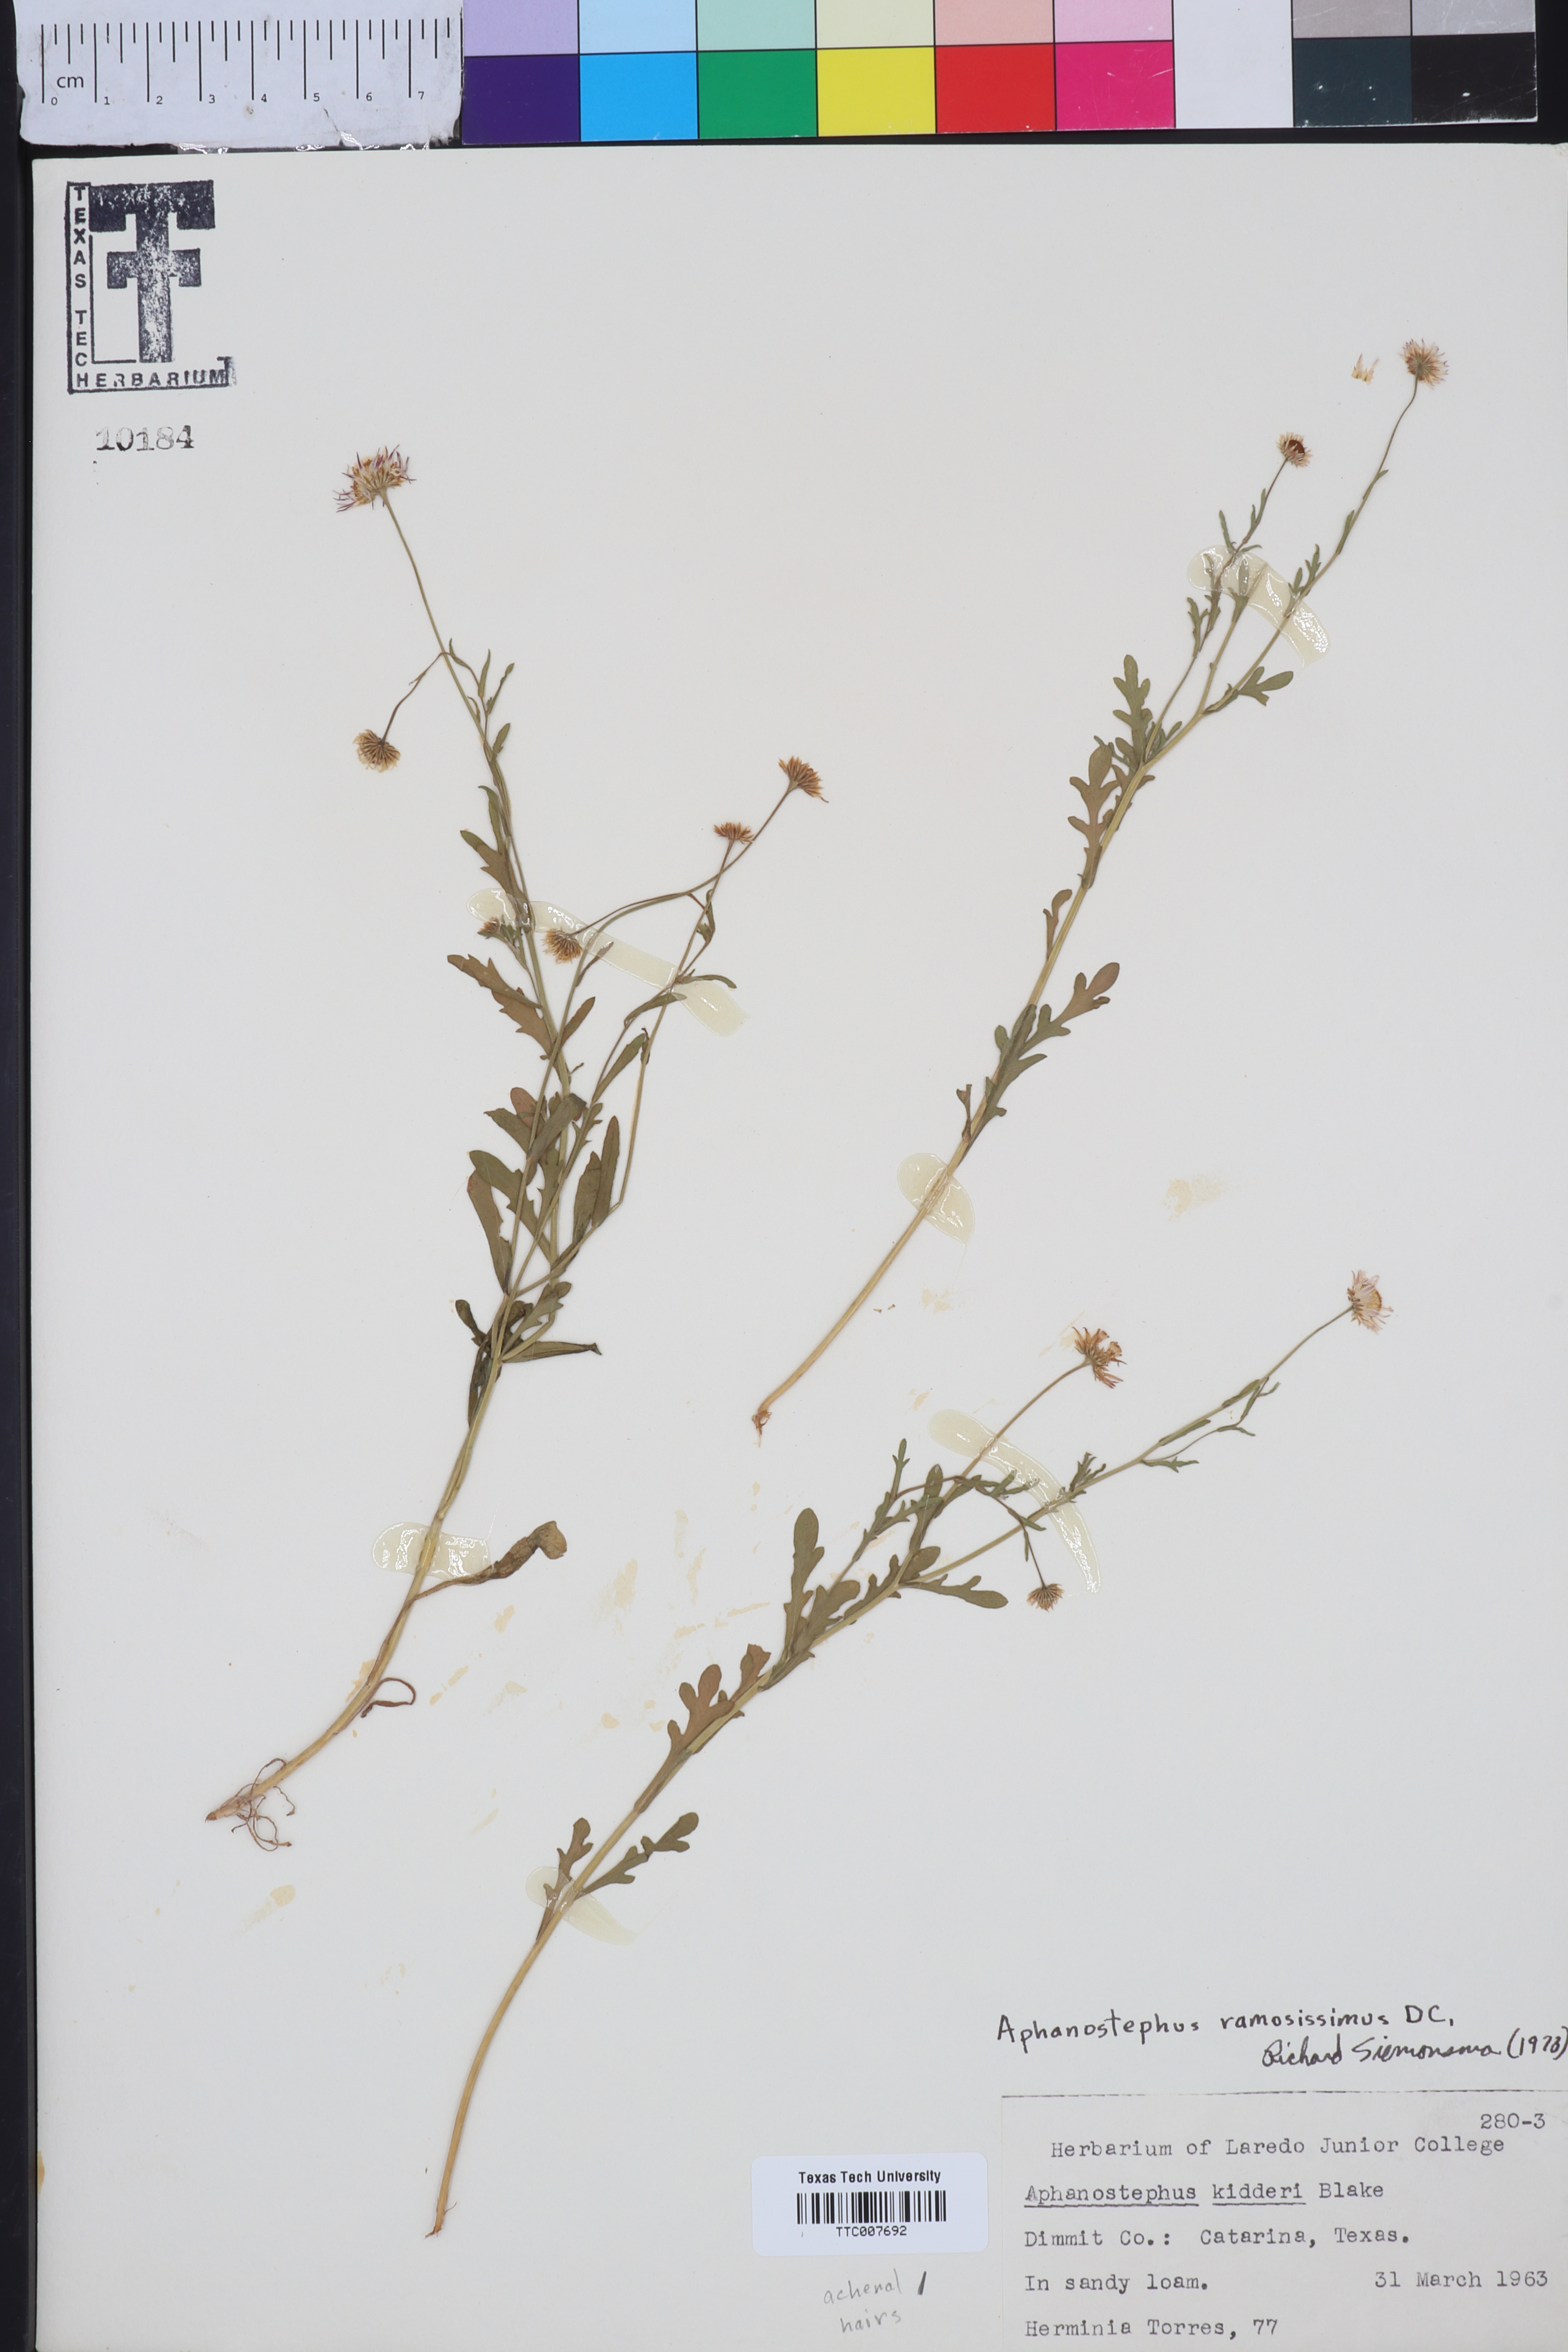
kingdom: Plantae
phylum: Tracheophyta
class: Magnoliopsida
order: Asterales
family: Asteraceae
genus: Aphanostephus
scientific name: Aphanostephus ramosissimus
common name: Plains lazy daisy
